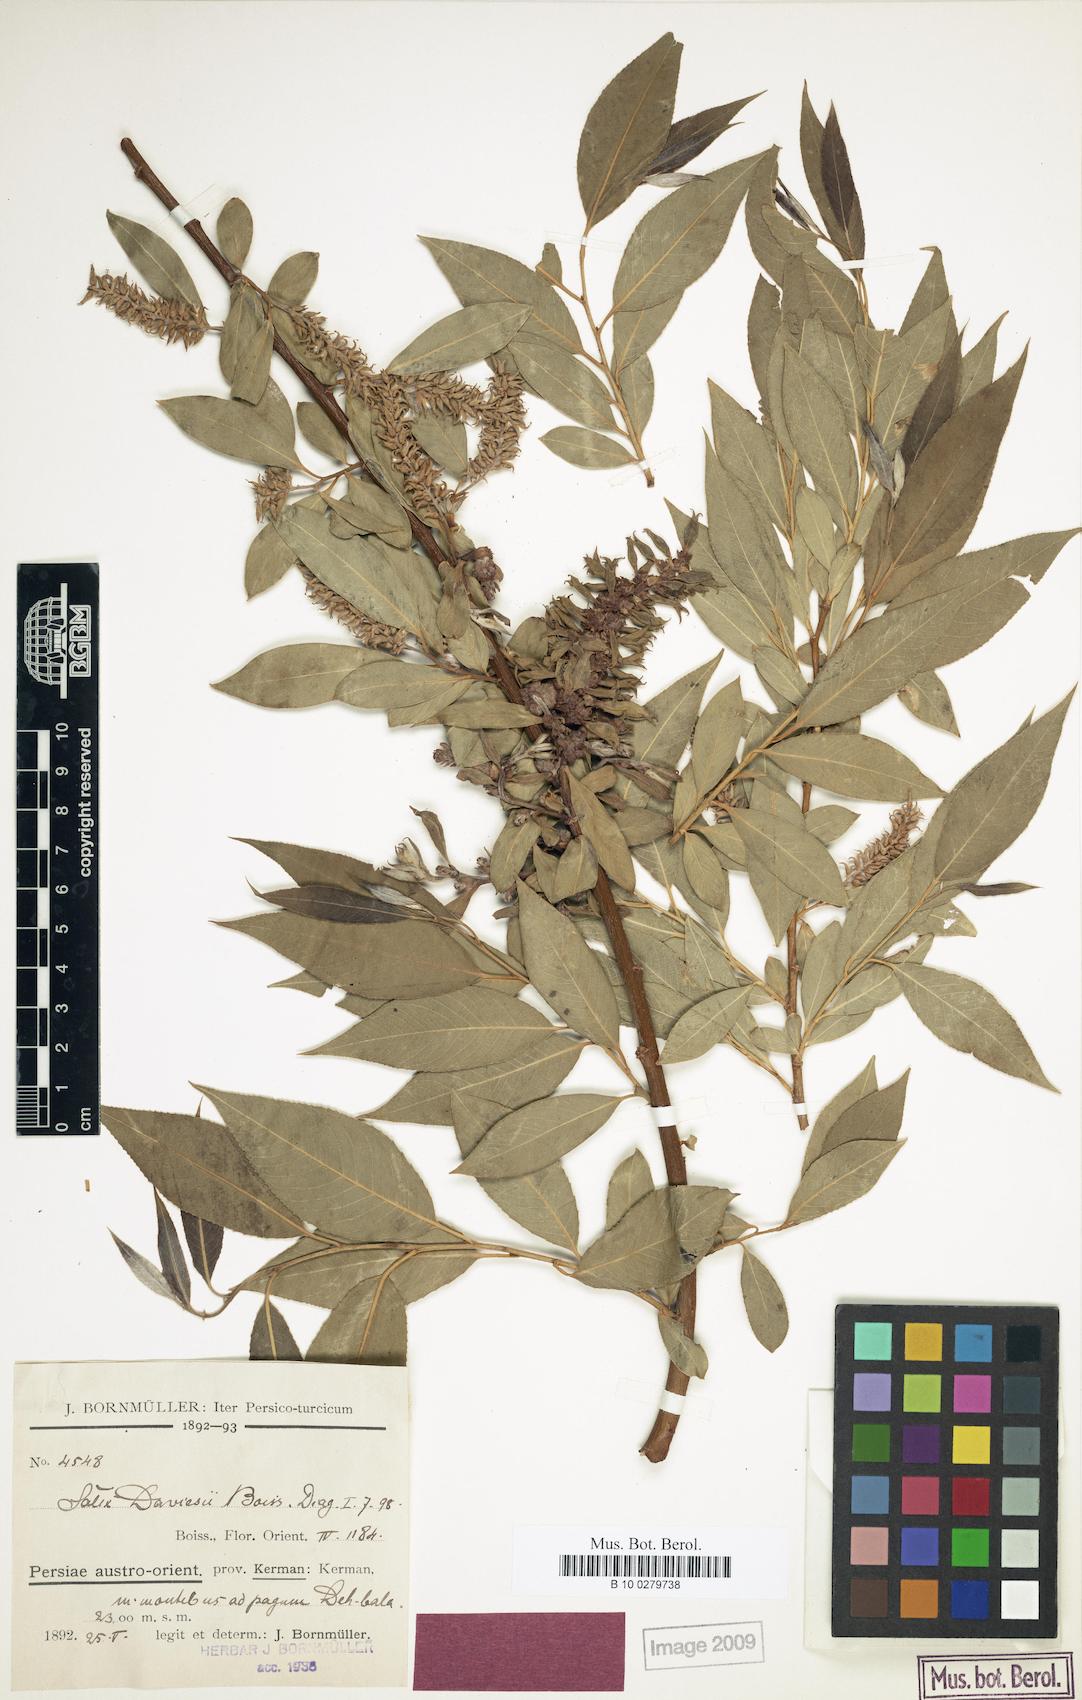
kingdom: Plantae
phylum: Tracheophyta
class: Magnoliopsida
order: Malpighiales
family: Salicaceae
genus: Salix
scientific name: Salix excelsa
